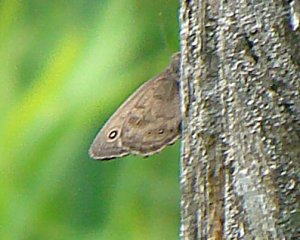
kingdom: Animalia
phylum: Arthropoda
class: Insecta
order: Lepidoptera
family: Nymphalidae
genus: Cercyonis
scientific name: Cercyonis pegala
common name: Common Wood-Nymph
